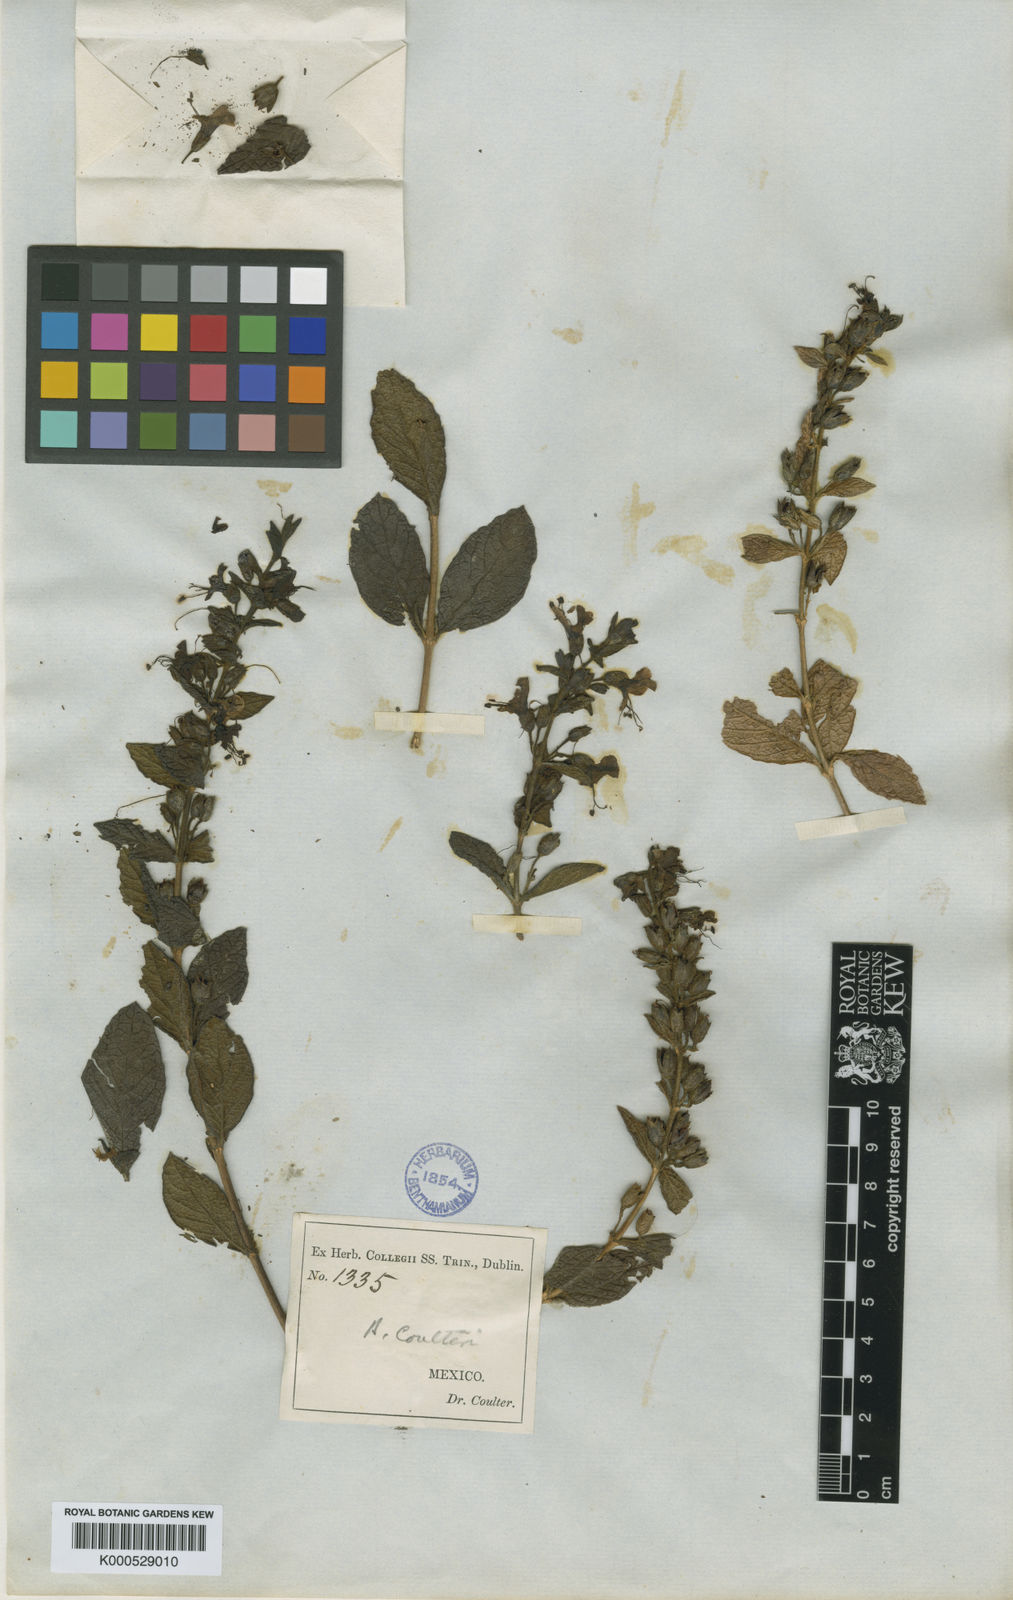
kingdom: Plantae
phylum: Tracheophyta
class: Magnoliopsida
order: Lamiales
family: Phrymaceae
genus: Hemichaena
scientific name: Hemichaena coulteri
